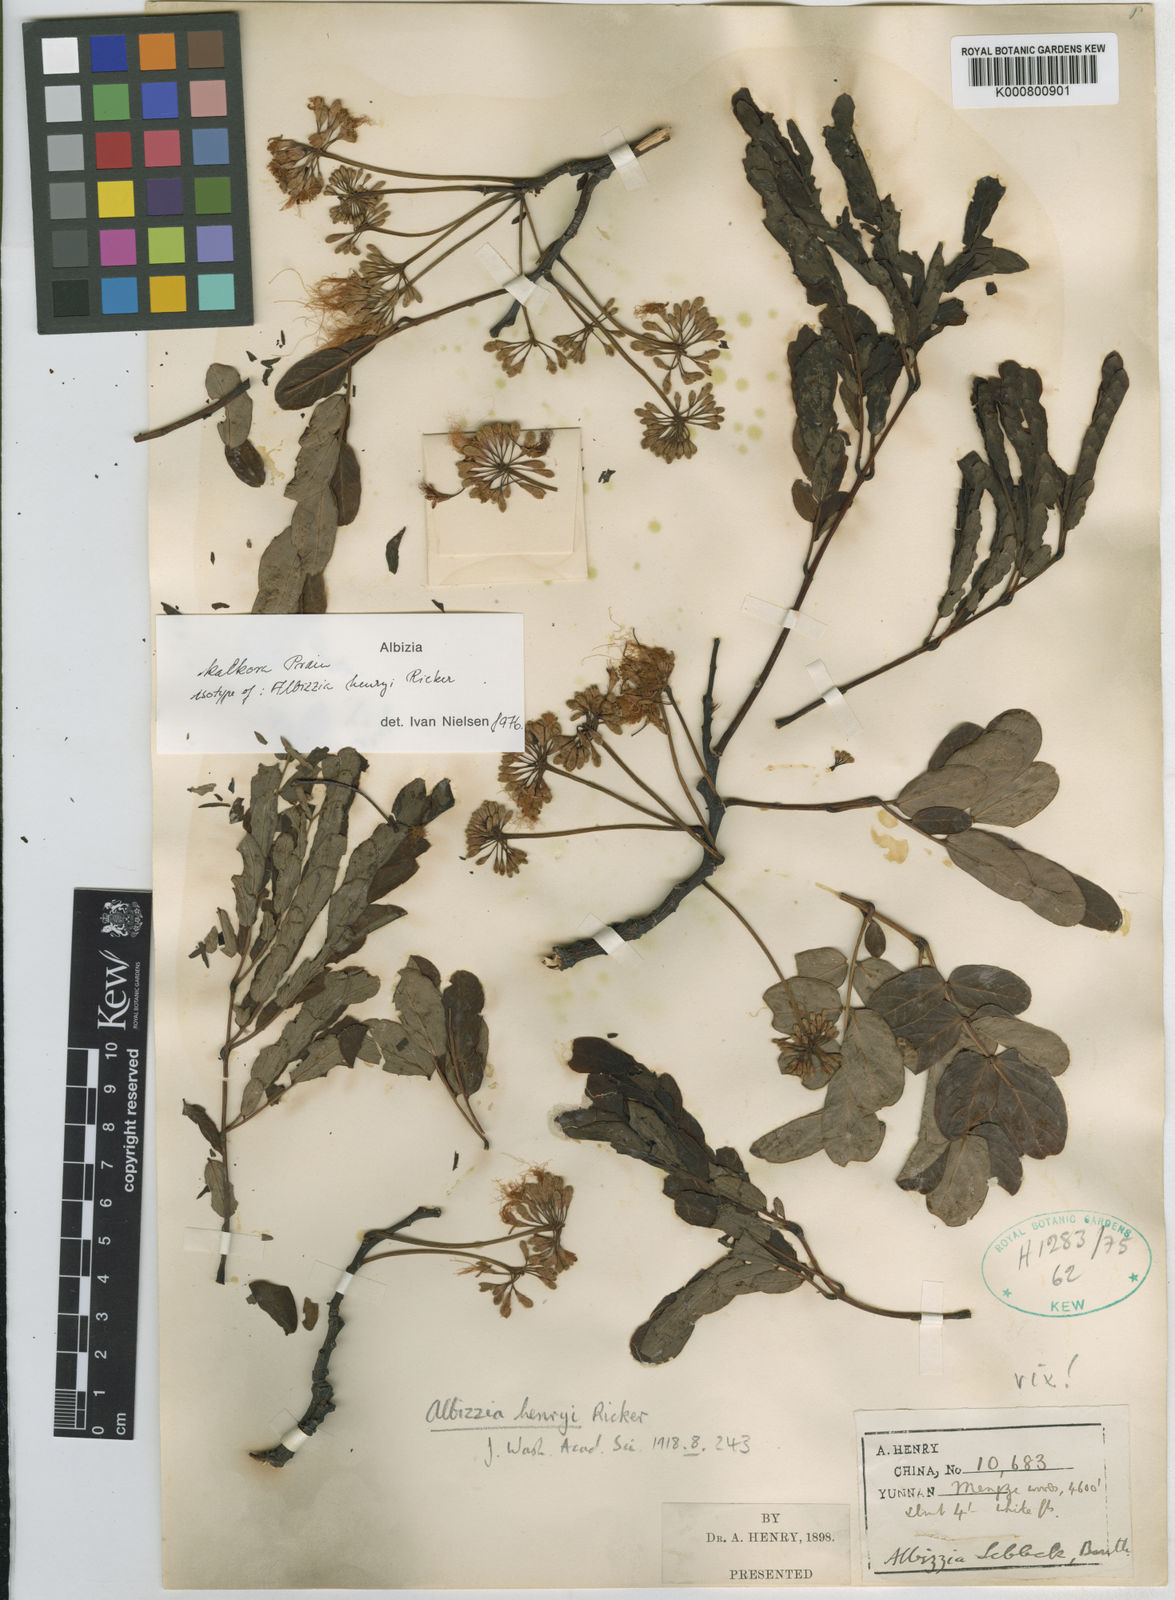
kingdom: Plantae
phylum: Tracheophyta
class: Magnoliopsida
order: Fabales
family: Fabaceae
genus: Albizia
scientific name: Albizia kalkora
